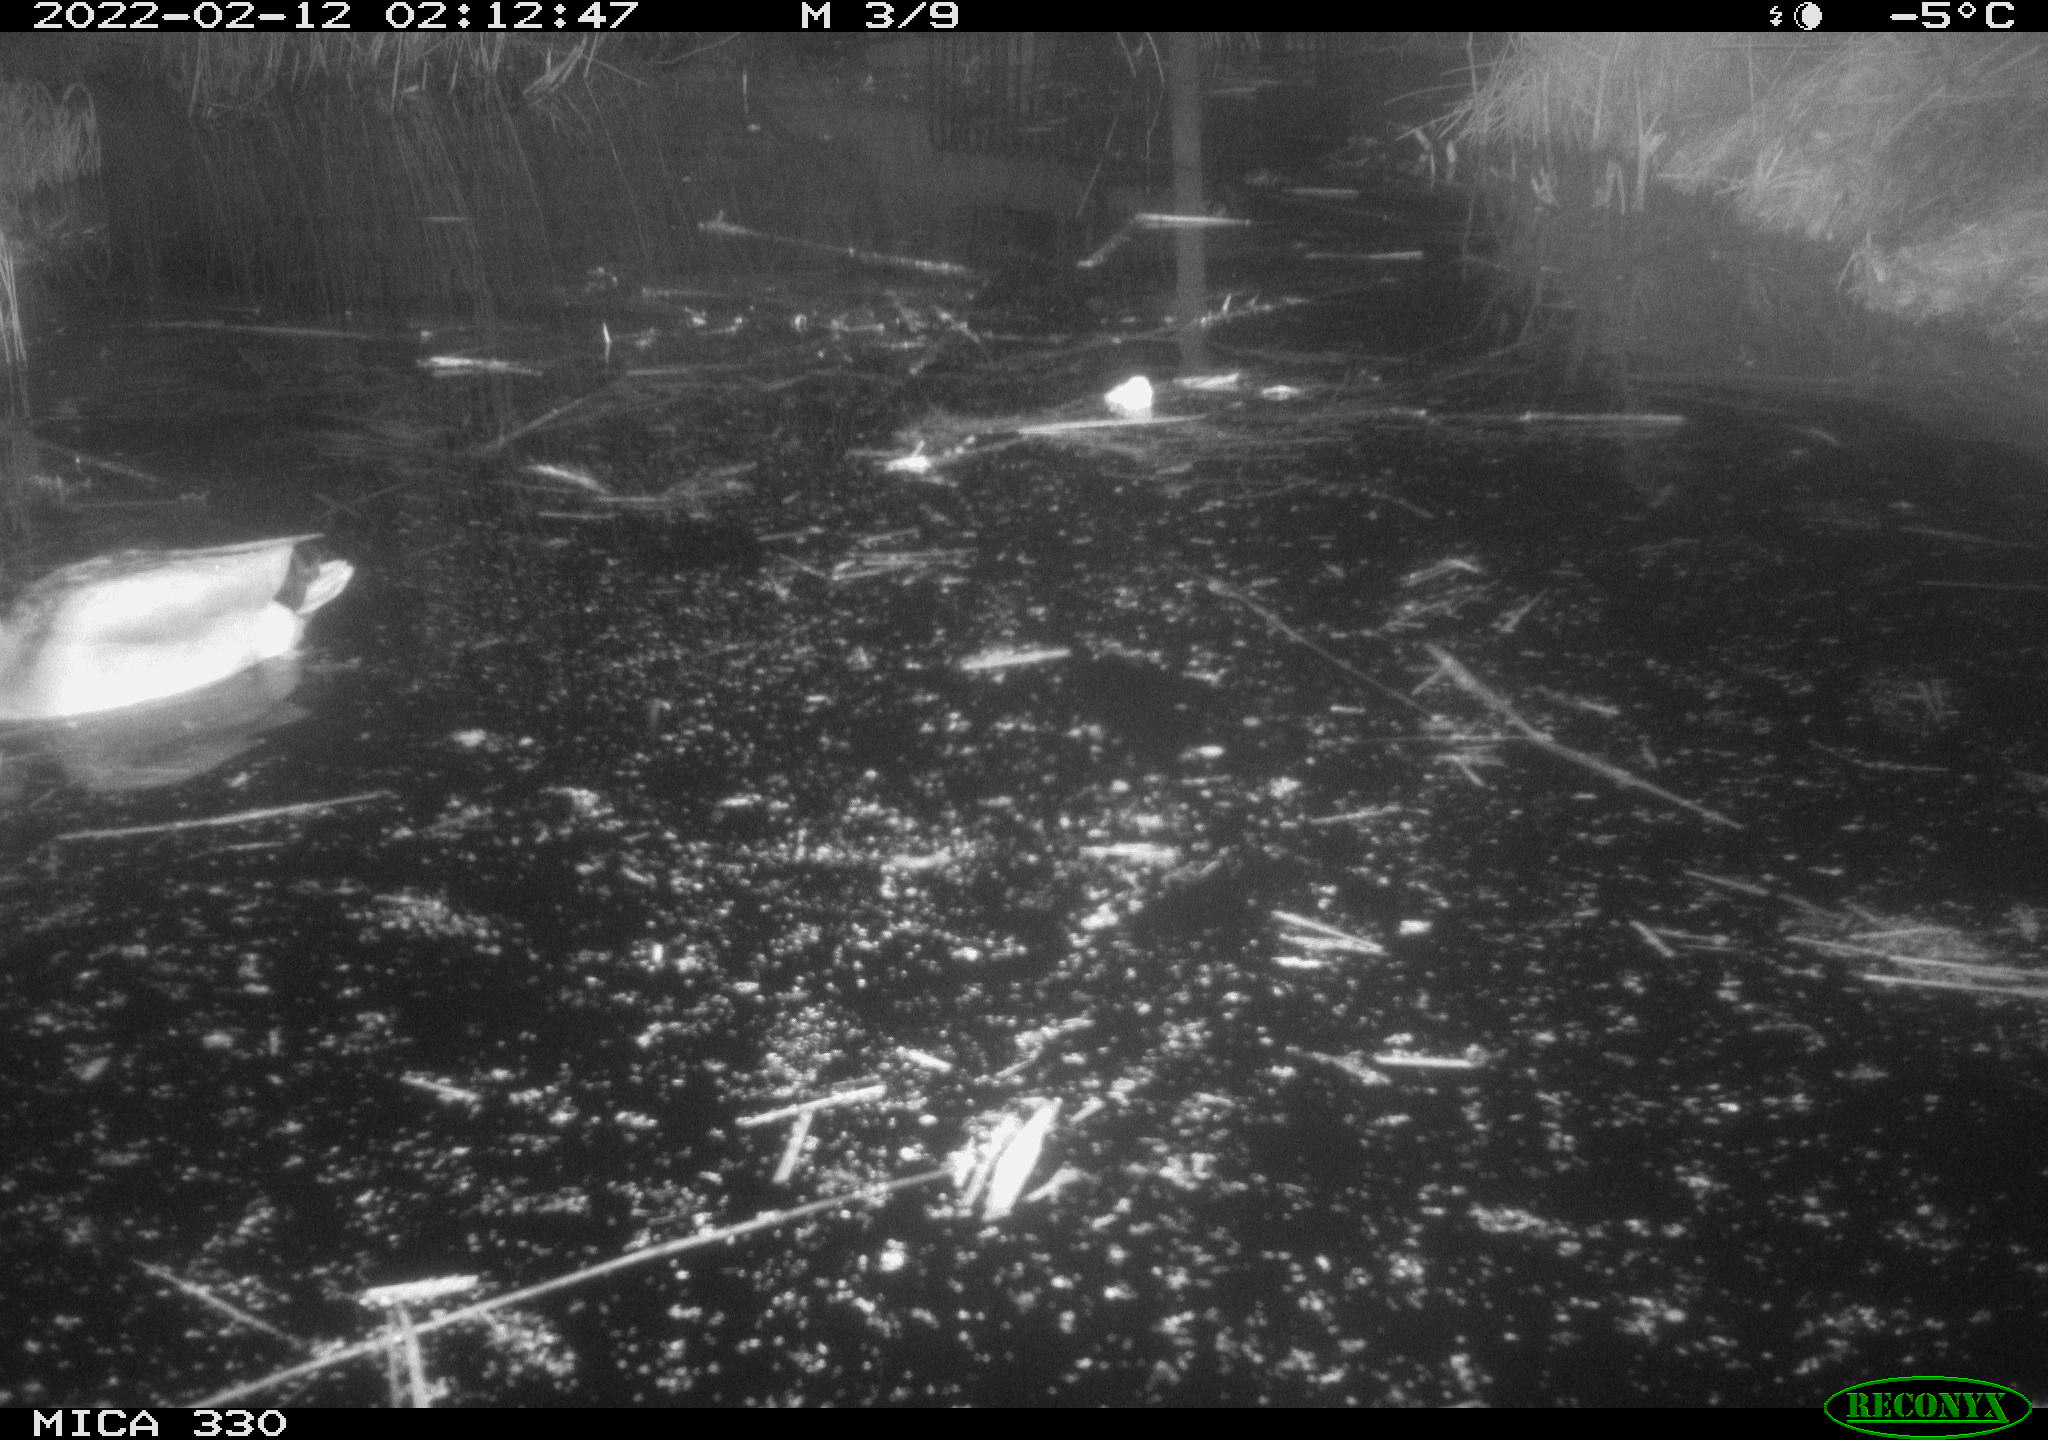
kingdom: Animalia
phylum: Chordata
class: Aves
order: Anseriformes
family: Anatidae
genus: Anas
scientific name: Anas platyrhynchos
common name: Mallard
